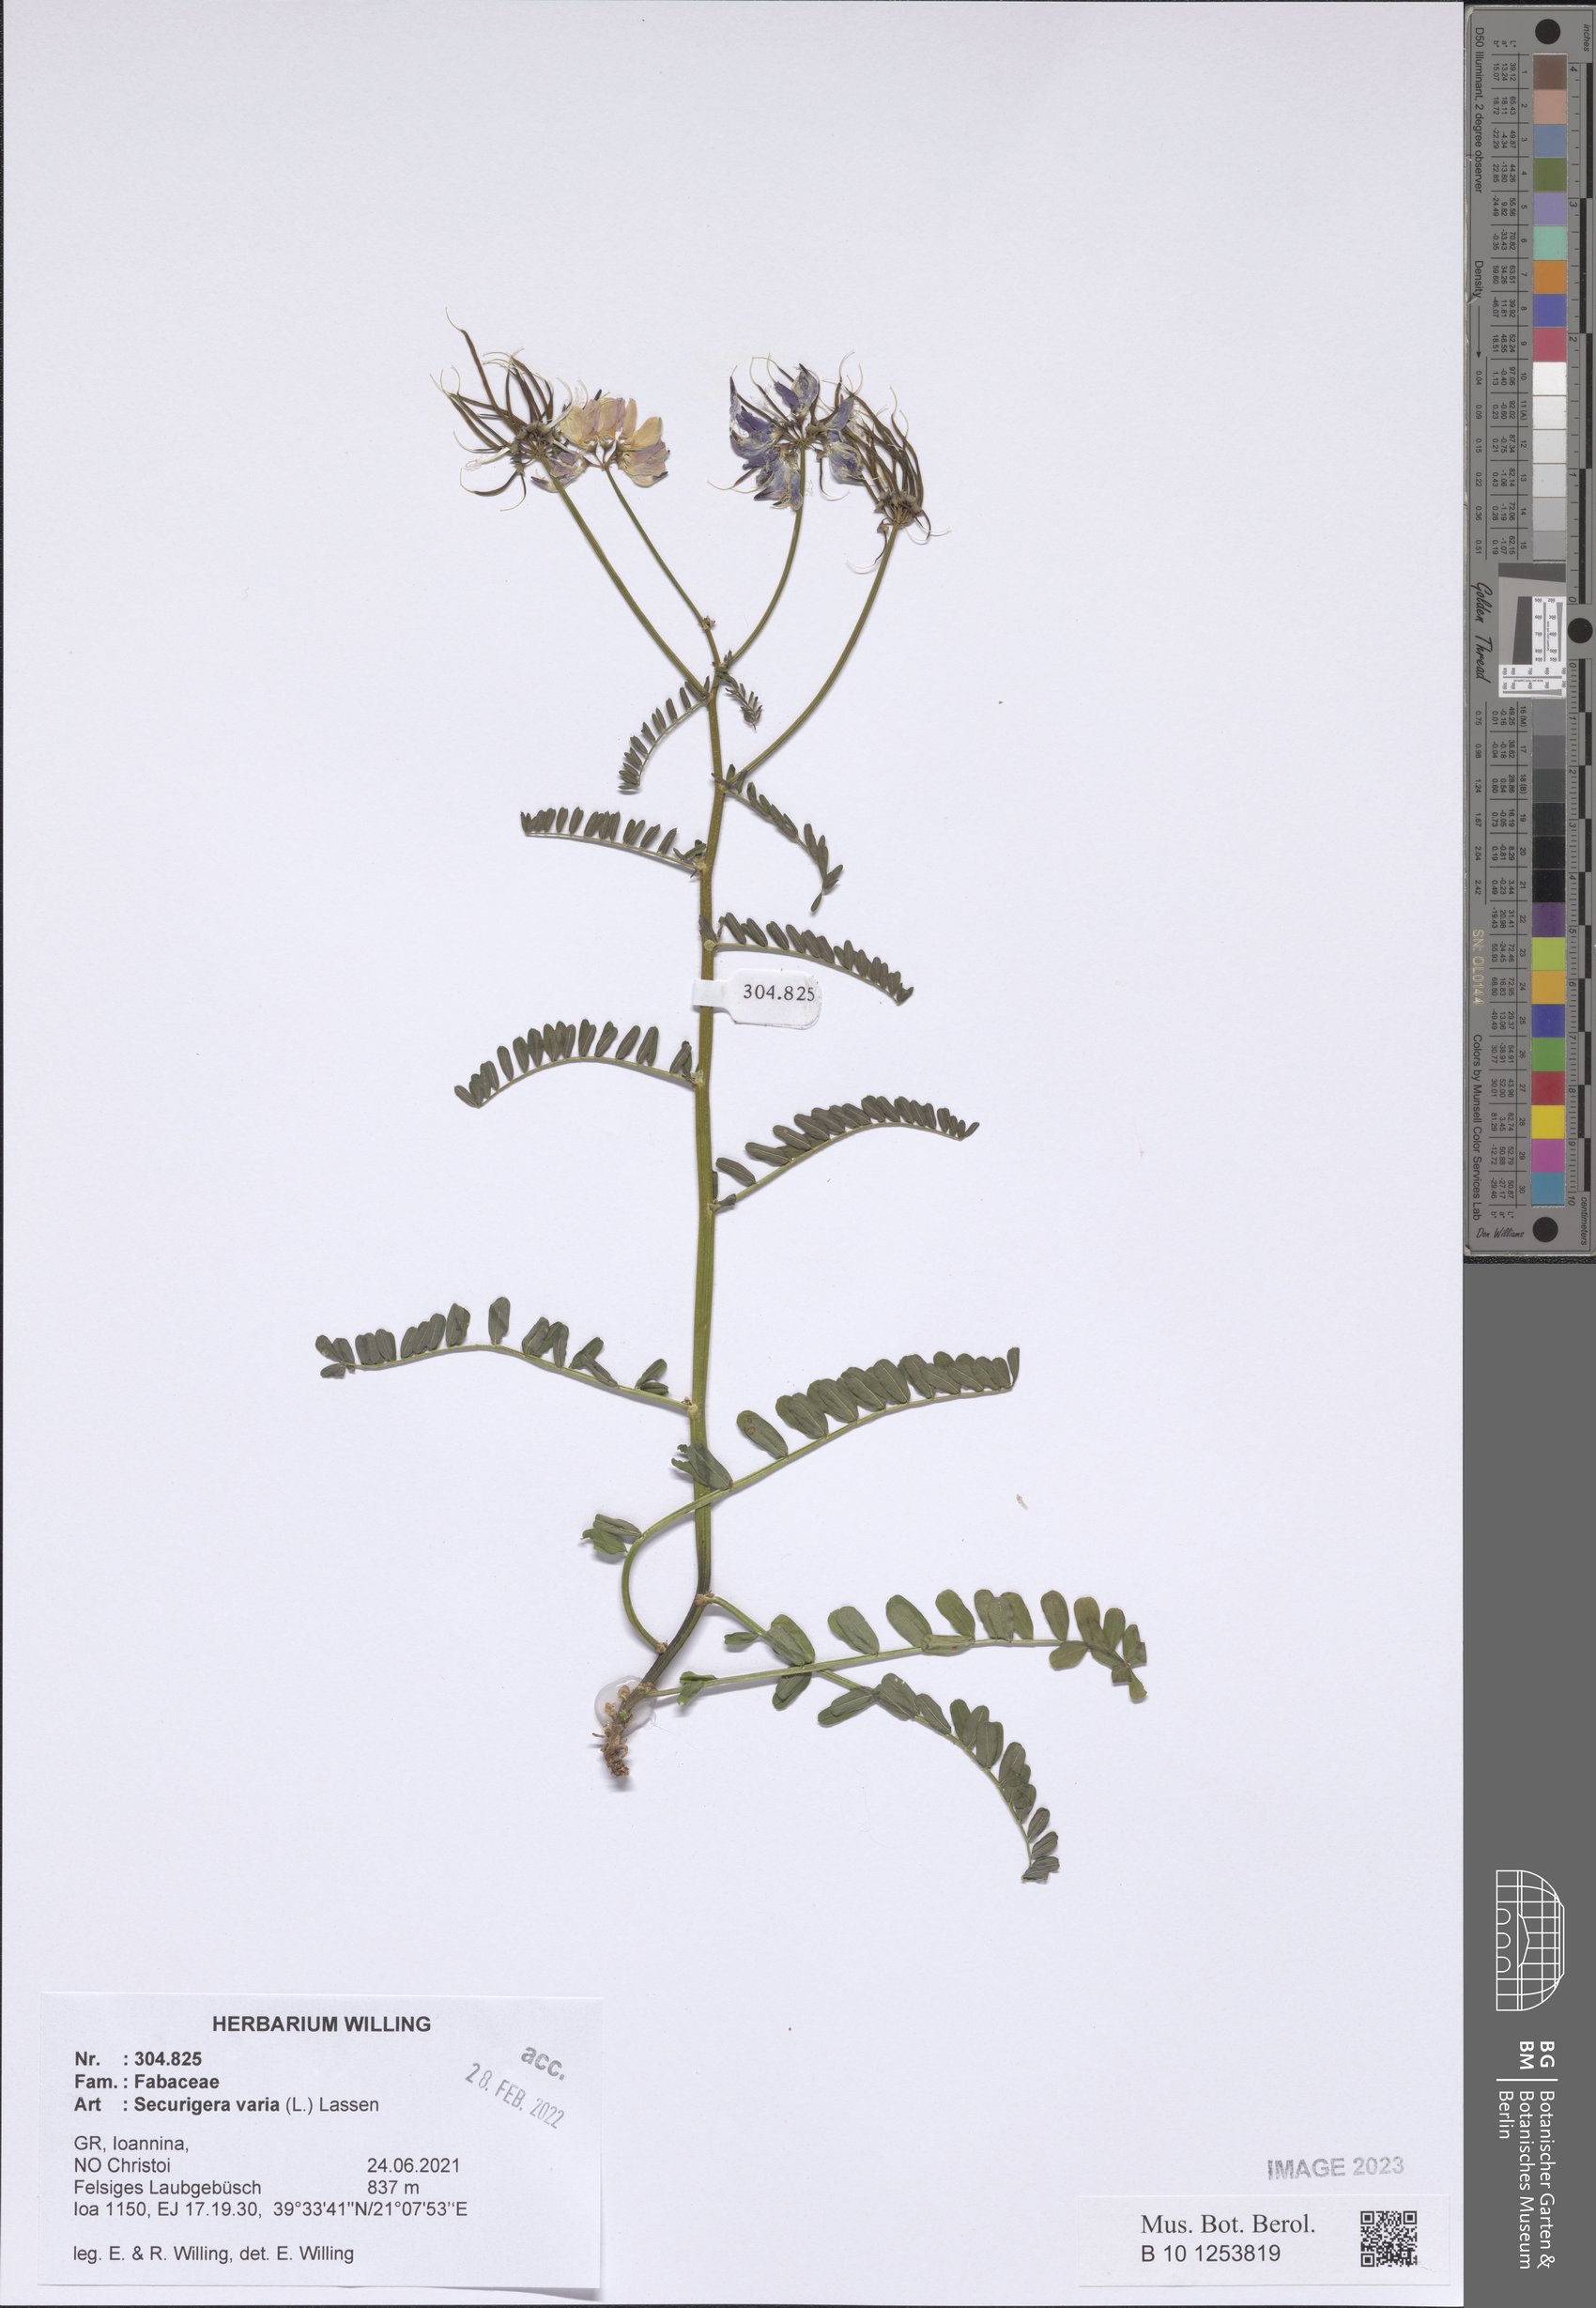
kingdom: Plantae
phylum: Tracheophyta
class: Magnoliopsida
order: Fabales
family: Fabaceae
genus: Coronilla
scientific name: Coronilla varia
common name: Crownvetch
